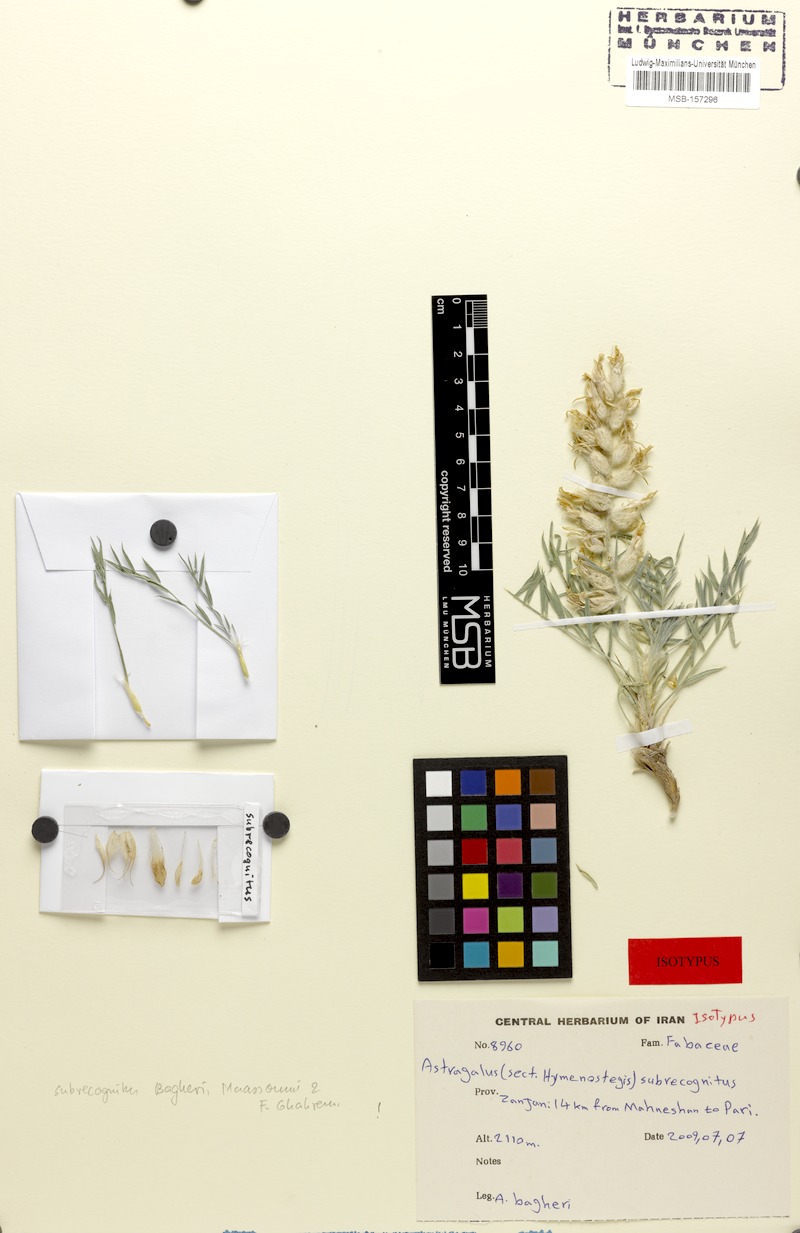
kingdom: Plantae
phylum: Tracheophyta
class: Magnoliopsida
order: Fabales
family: Fabaceae
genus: Astragalus
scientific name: Astragalus subrecognitus
